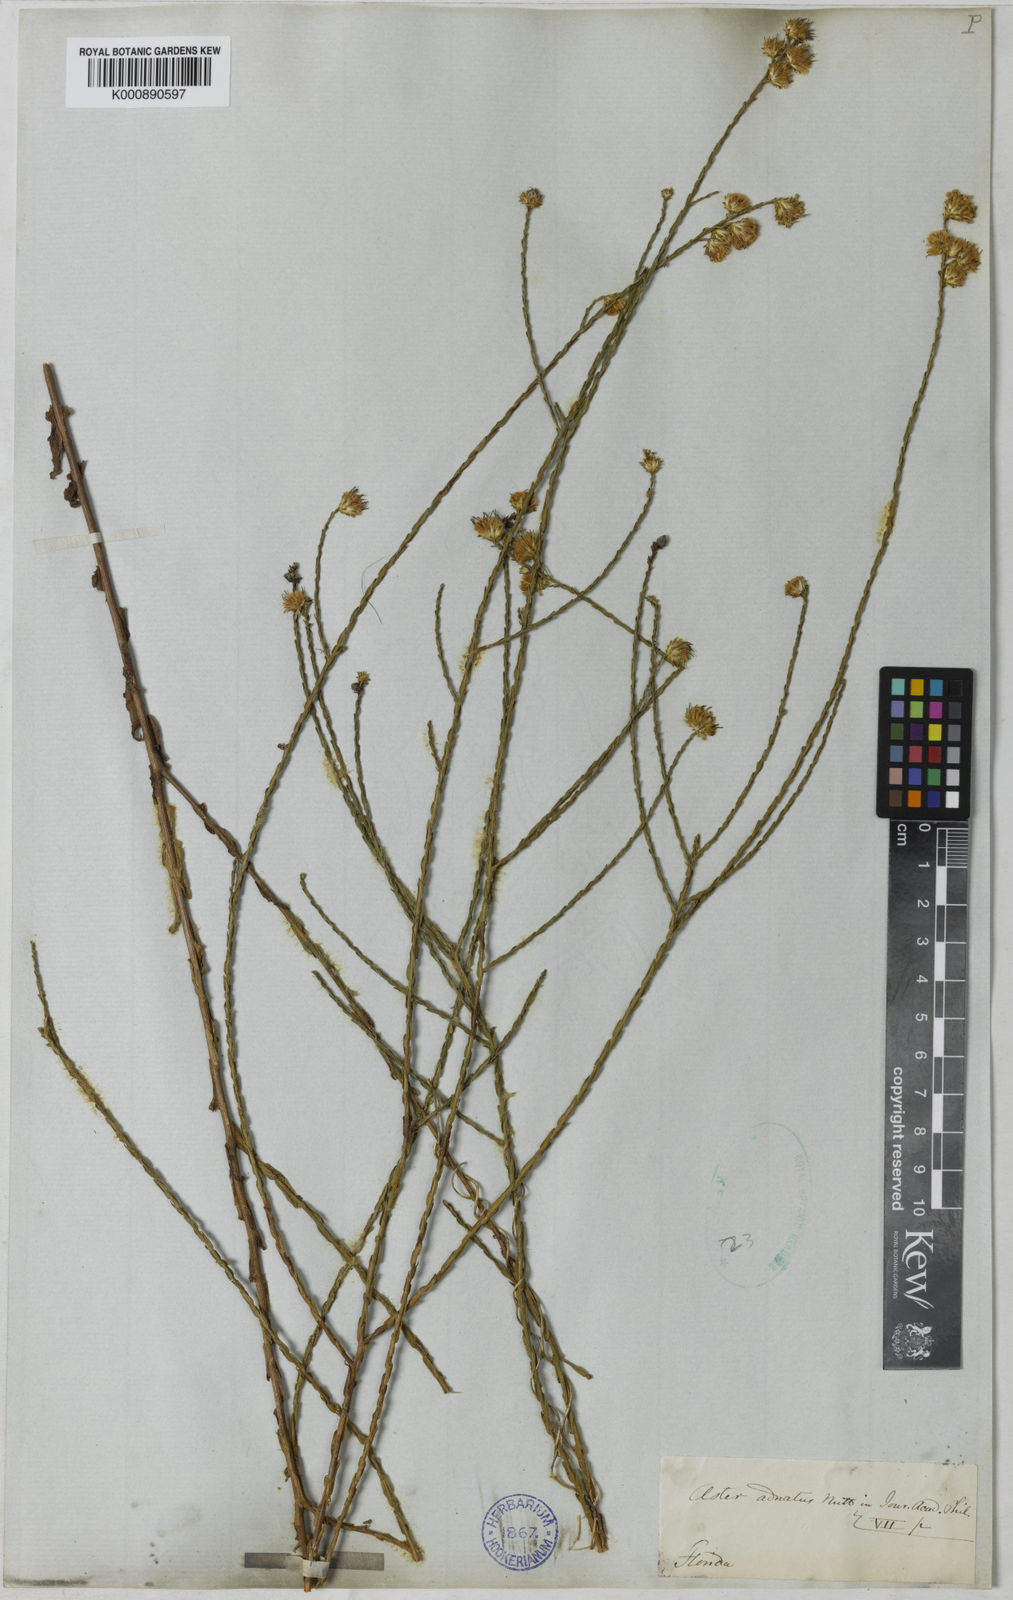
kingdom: Plantae
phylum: Tracheophyta
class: Magnoliopsida
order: Asterales
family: Asteraceae
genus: Symphyotrichum
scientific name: Symphyotrichum adnatum
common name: Scale-leaf aster
